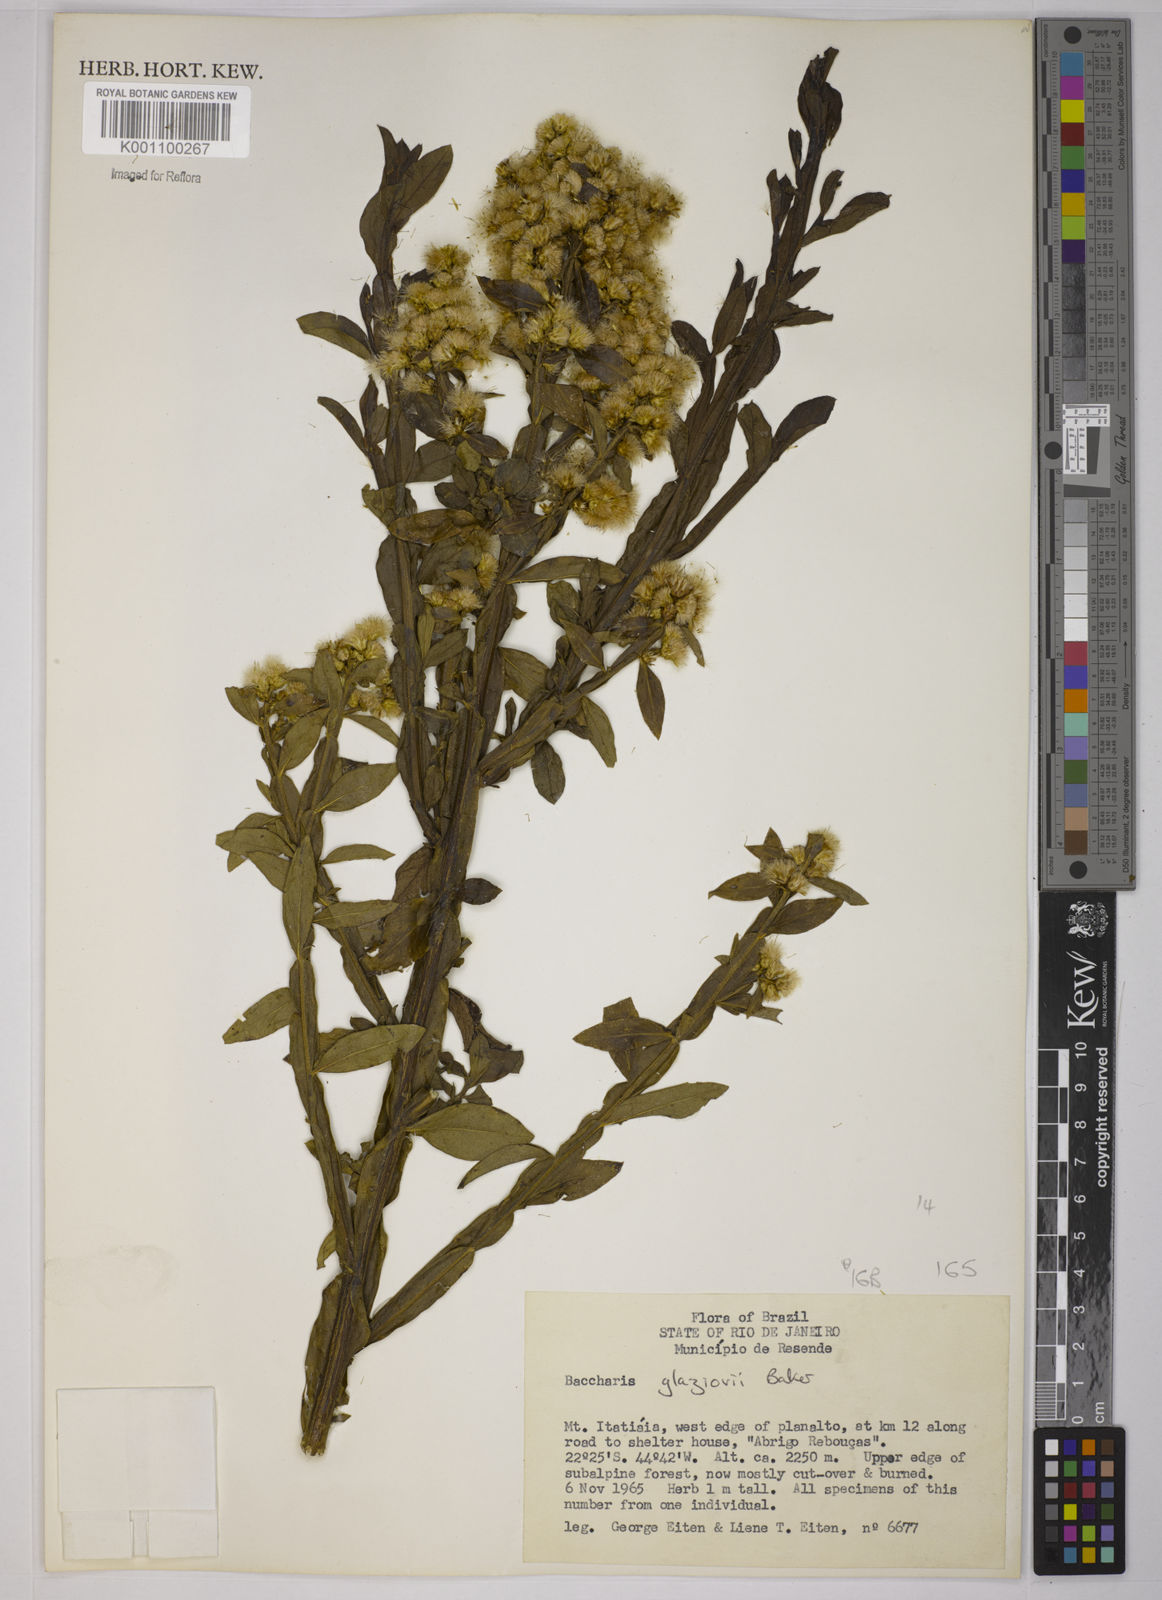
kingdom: Plantae
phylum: Tracheophyta
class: Magnoliopsida
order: Asterales
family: Asteraceae
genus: Baccharis
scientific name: Baccharis glaziovii
